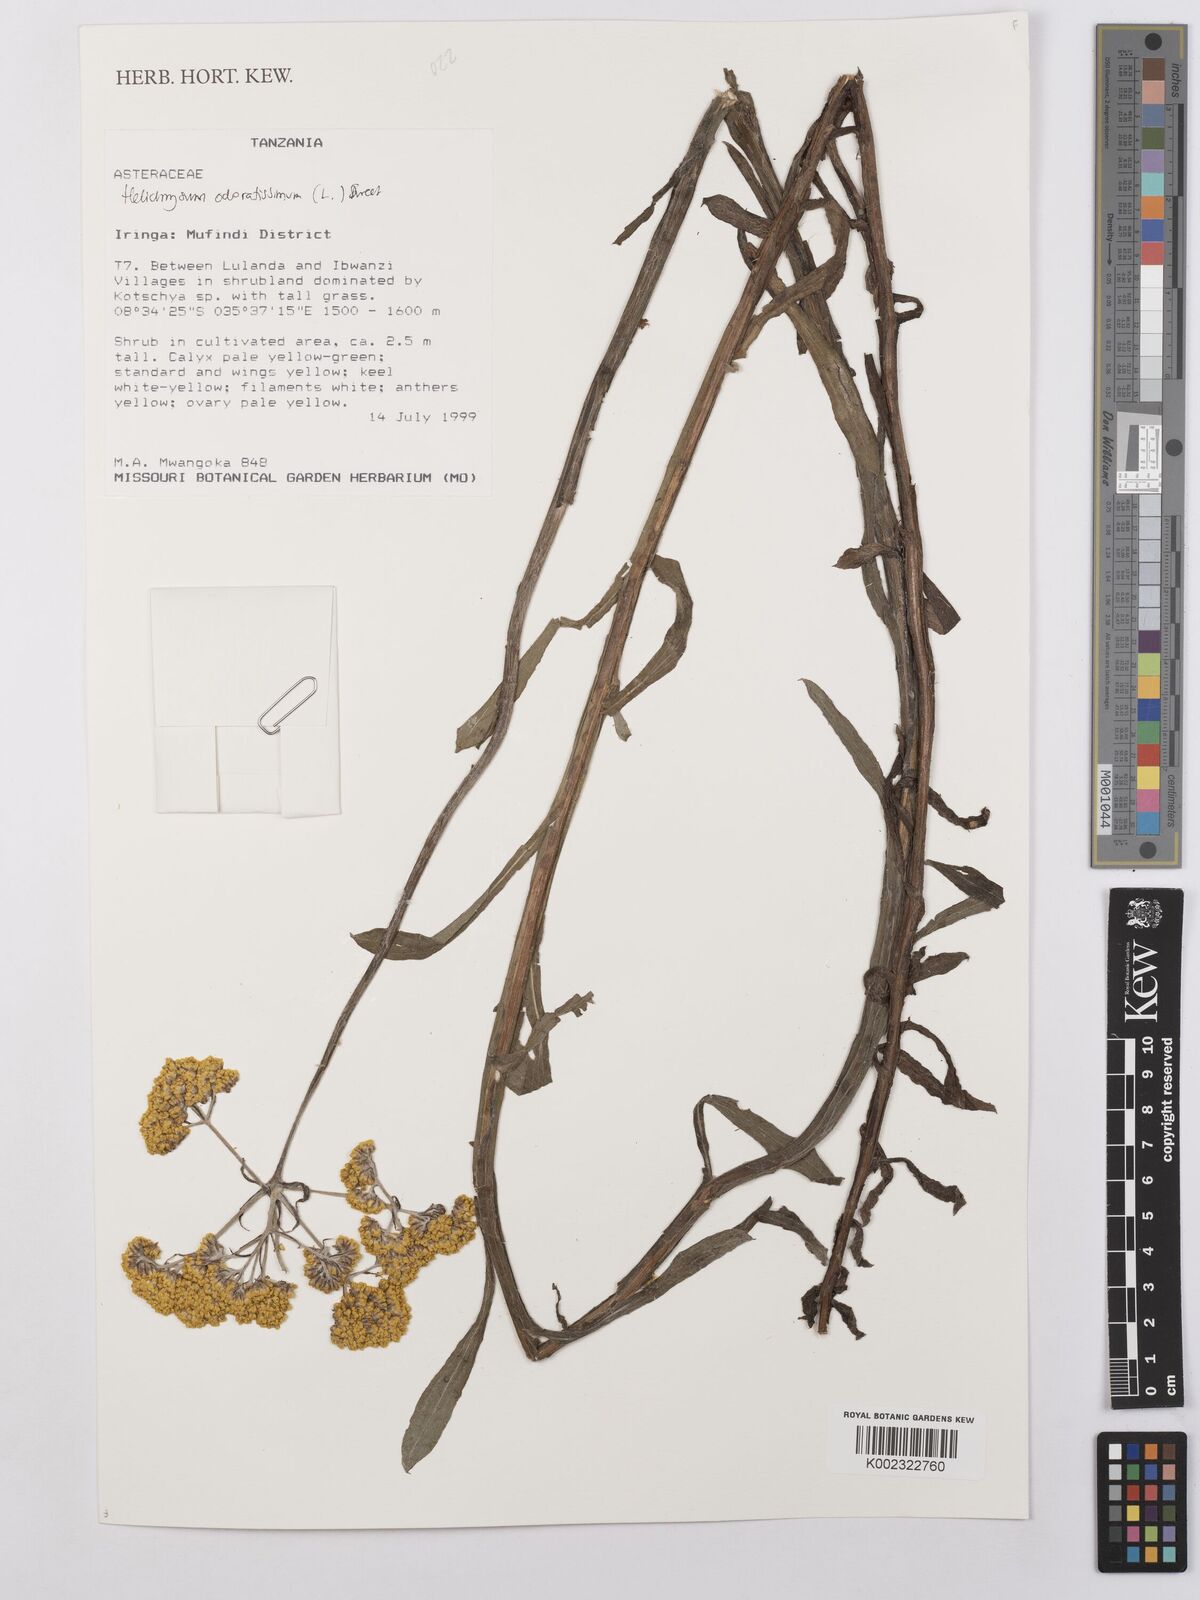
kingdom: Plantae
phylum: Tracheophyta
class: Magnoliopsida
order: Asterales
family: Asteraceae
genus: Helichrysum
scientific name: Helichrysum odoratissimum
